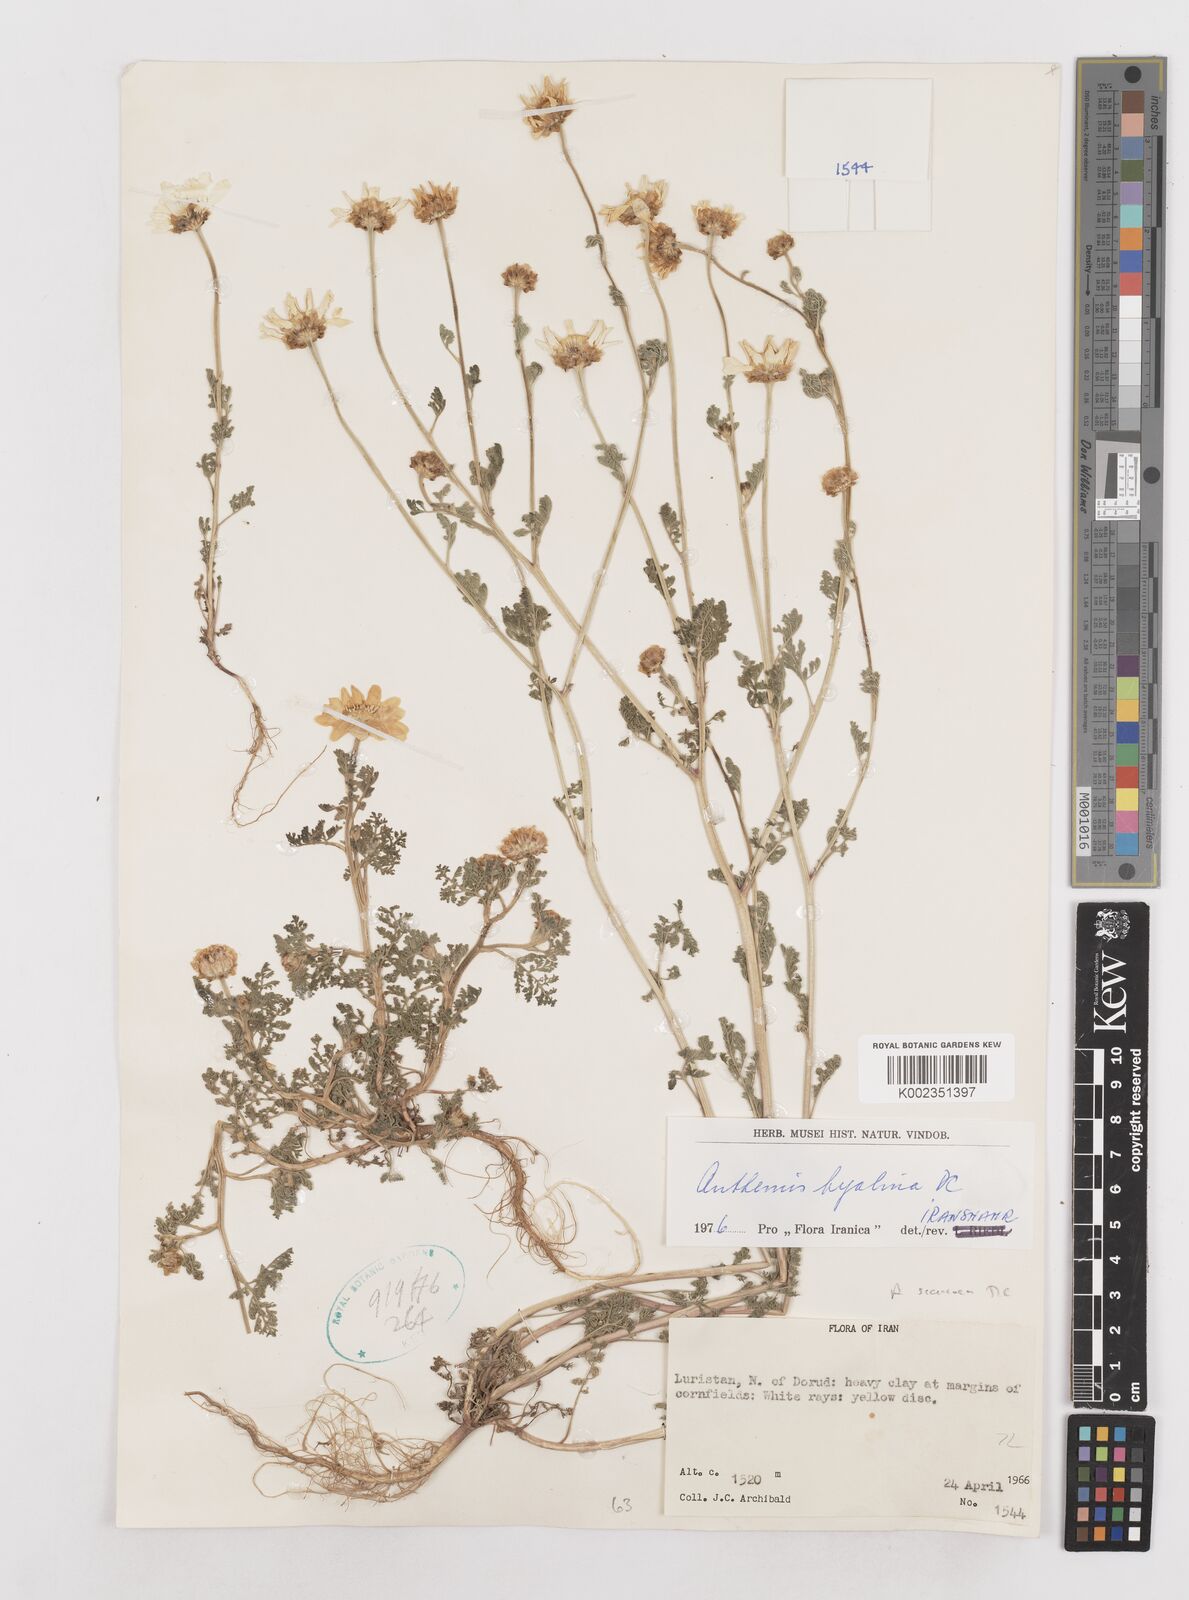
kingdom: Plantae
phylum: Tracheophyta
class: Magnoliopsida
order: Asterales
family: Asteraceae
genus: Anthemis
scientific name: Anthemis hyalina
